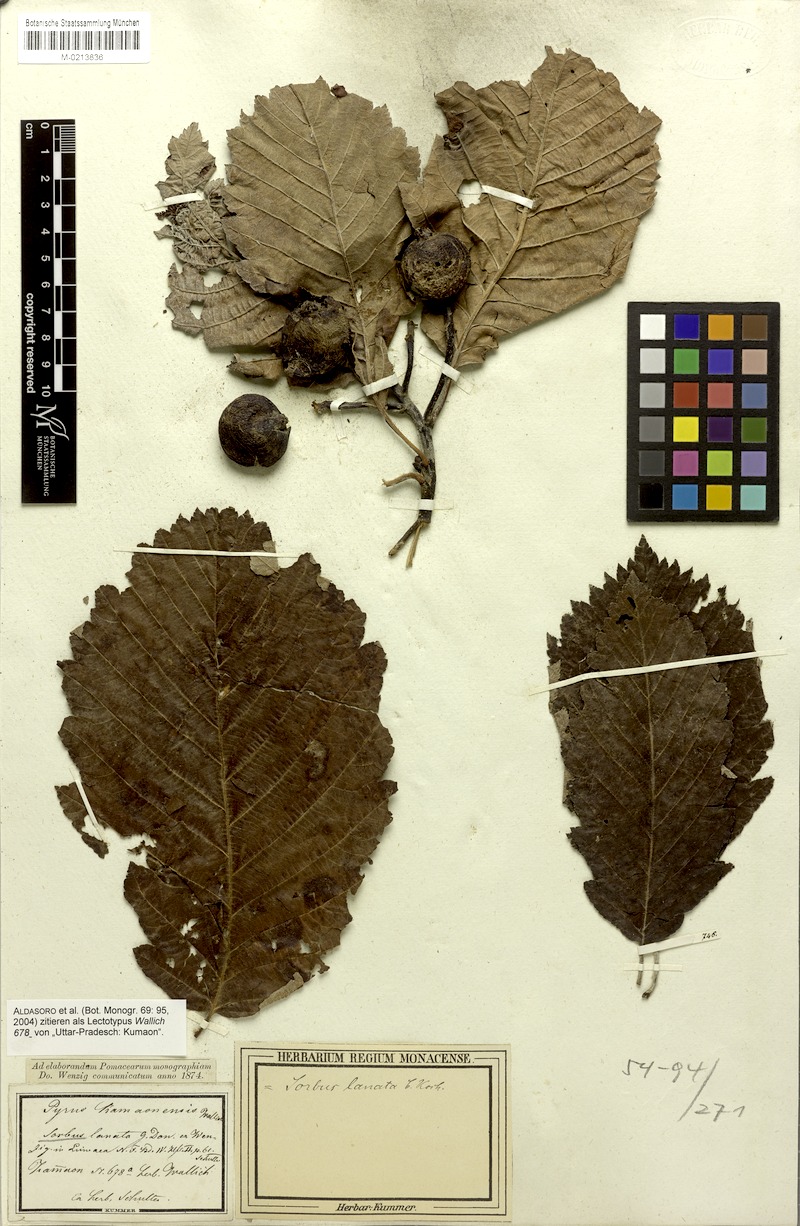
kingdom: Plantae
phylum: Tracheophyta
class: Magnoliopsida
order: Rosales
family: Rosaceae
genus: Sorbus
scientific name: Sorbus lanata
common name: Hairy rowan
